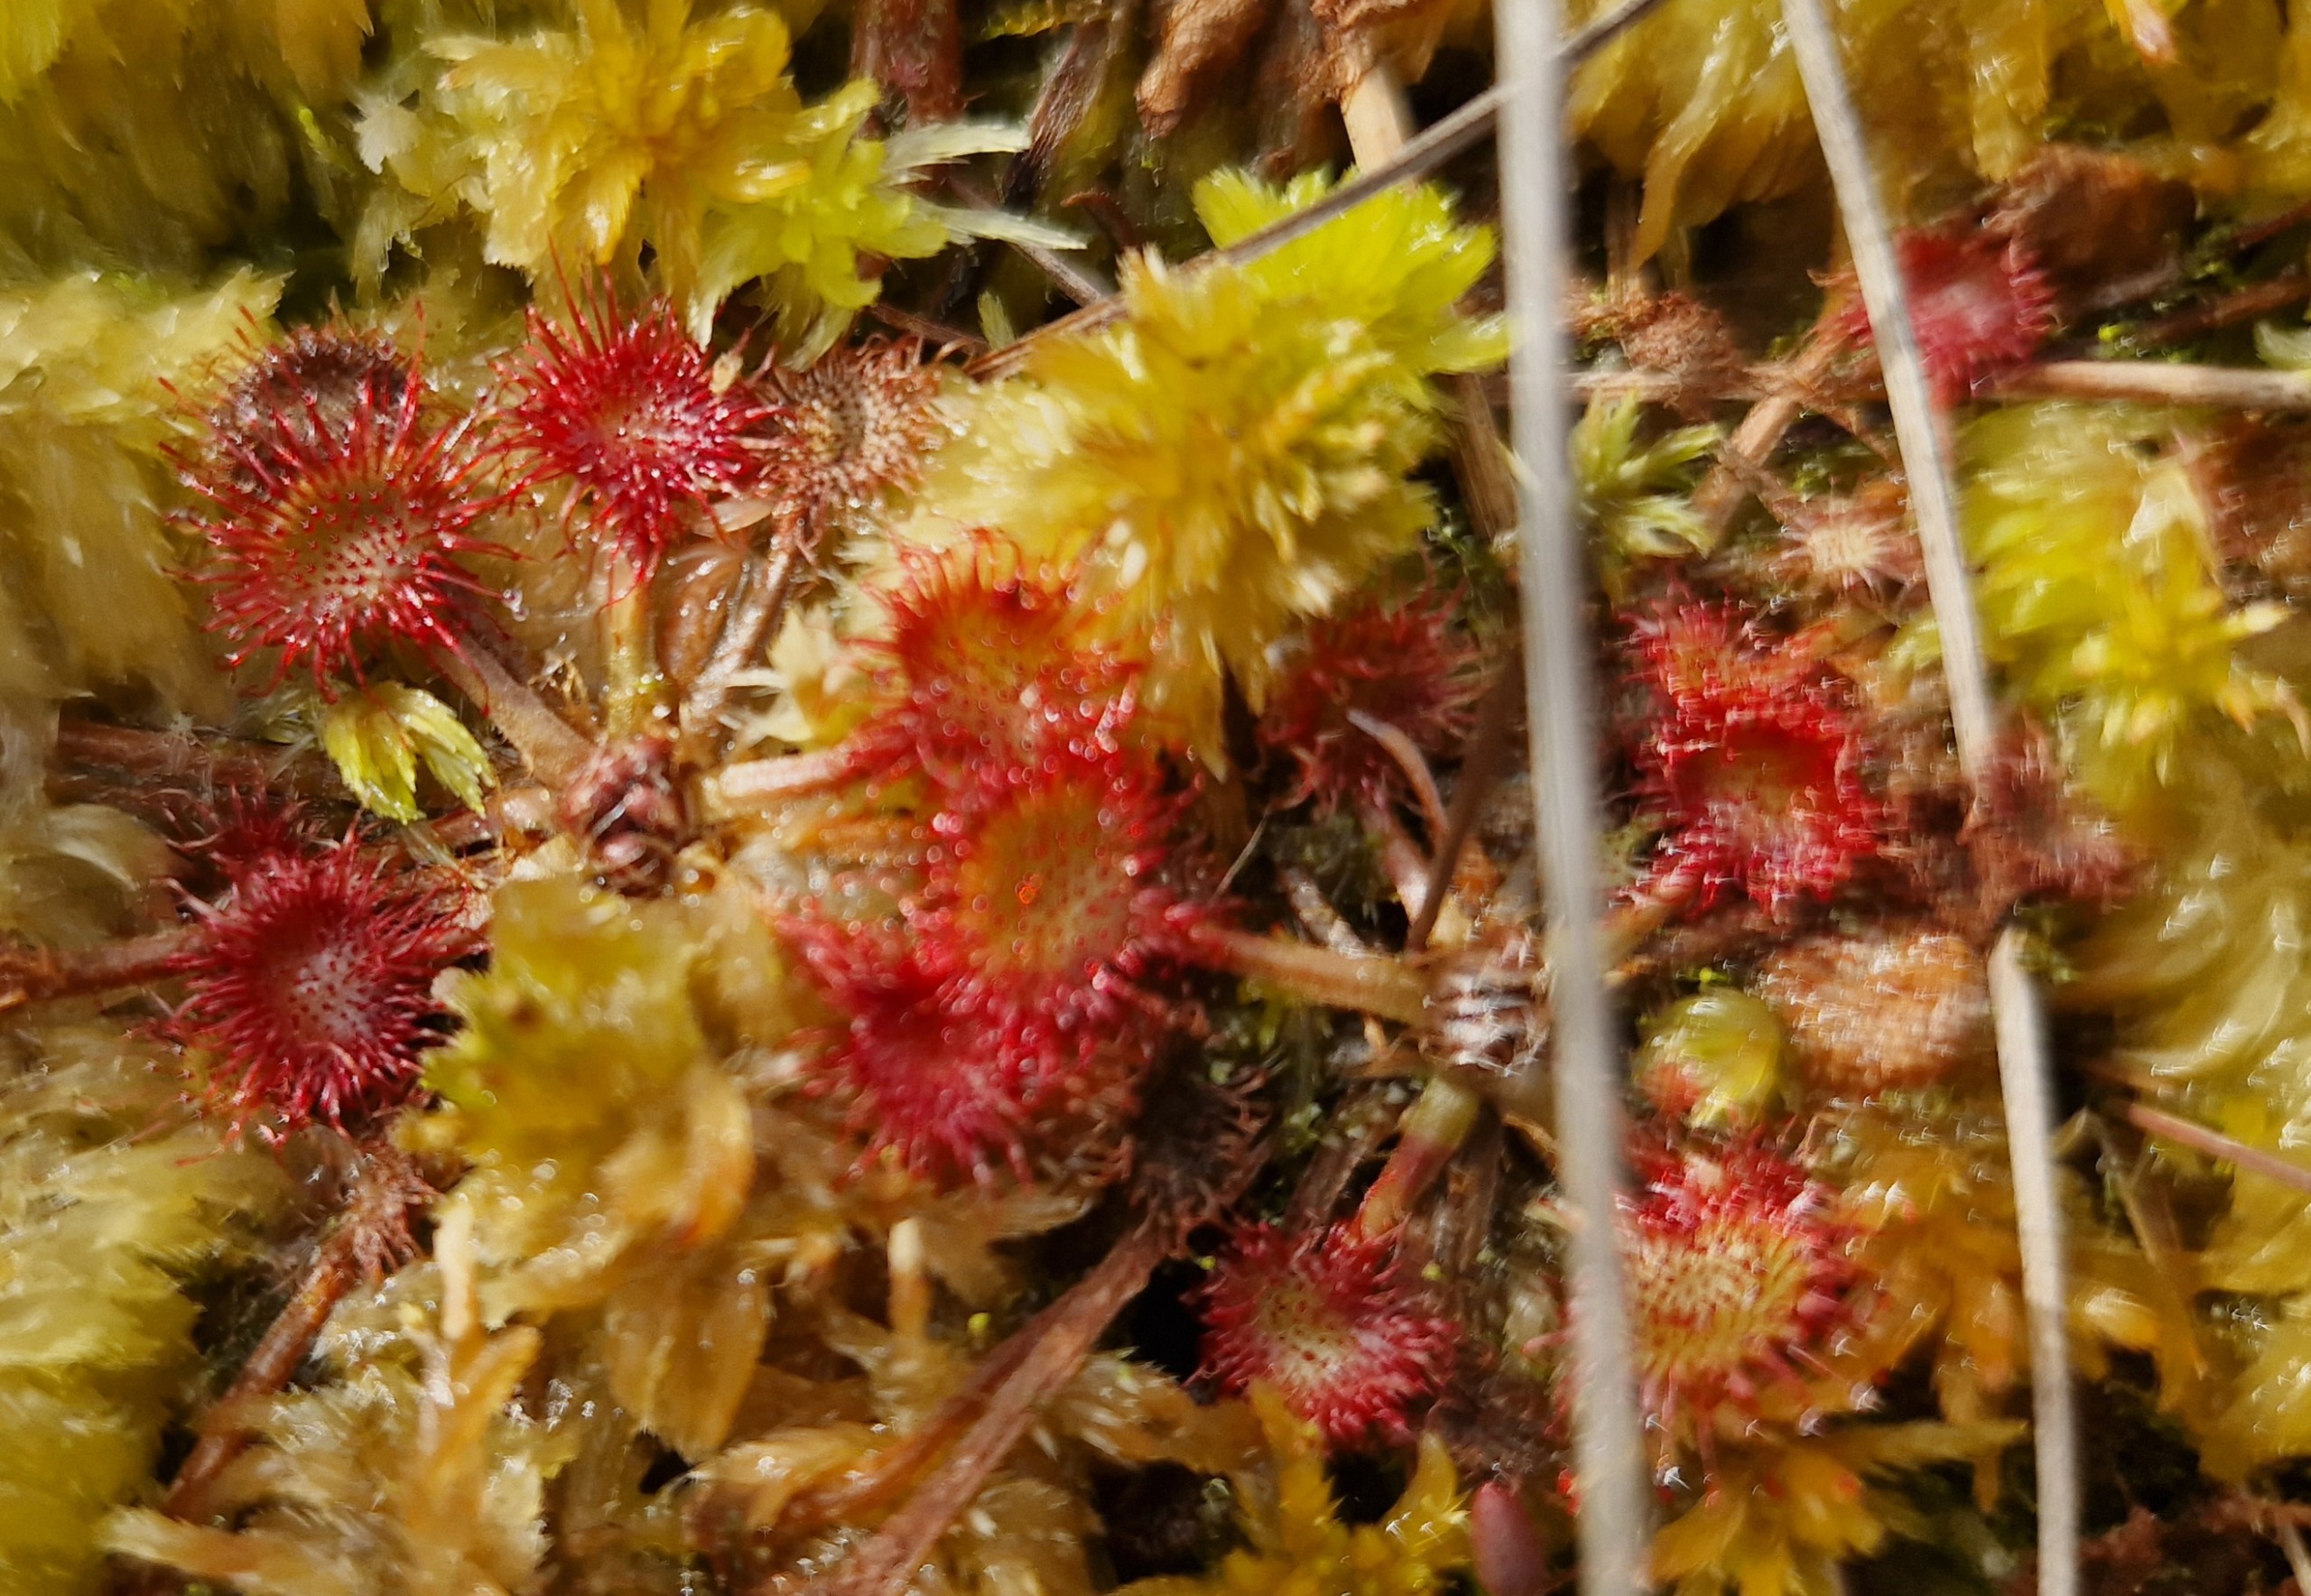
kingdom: Plantae
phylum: Tracheophyta
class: Magnoliopsida
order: Caryophyllales
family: Droseraceae
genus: Drosera
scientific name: Drosera rotundifolia
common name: Rundbladet soldug
